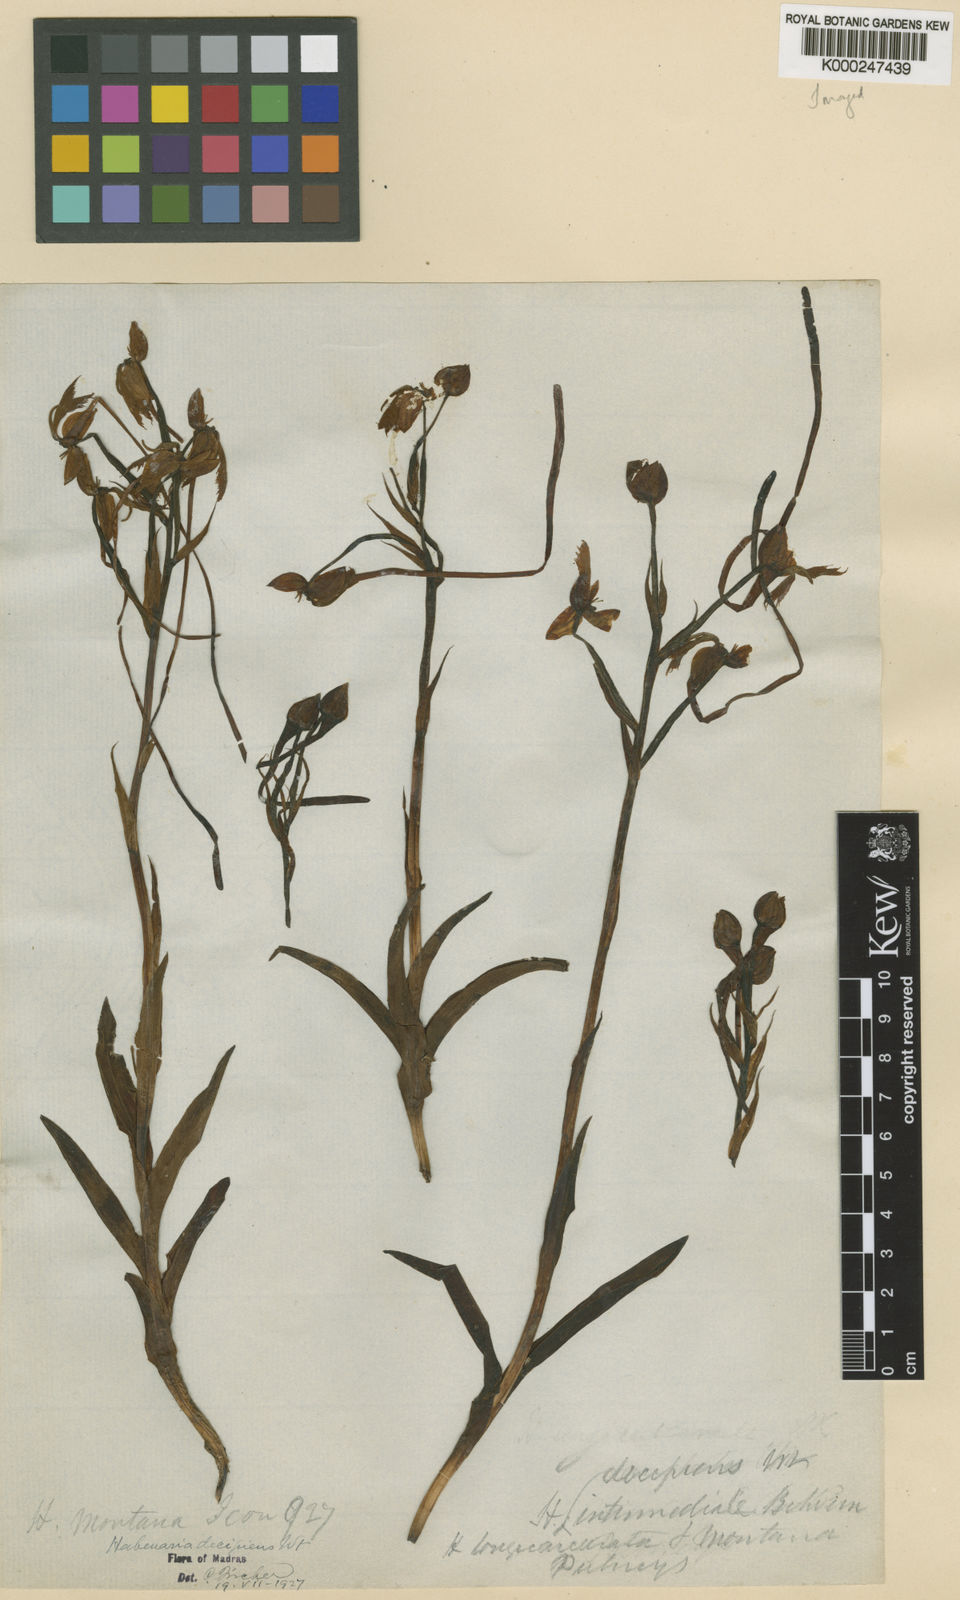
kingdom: Plantae
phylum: Tracheophyta
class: Liliopsida
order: Asparagales
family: Orchidaceae
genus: Habenaria
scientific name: Habenaria longicornu
